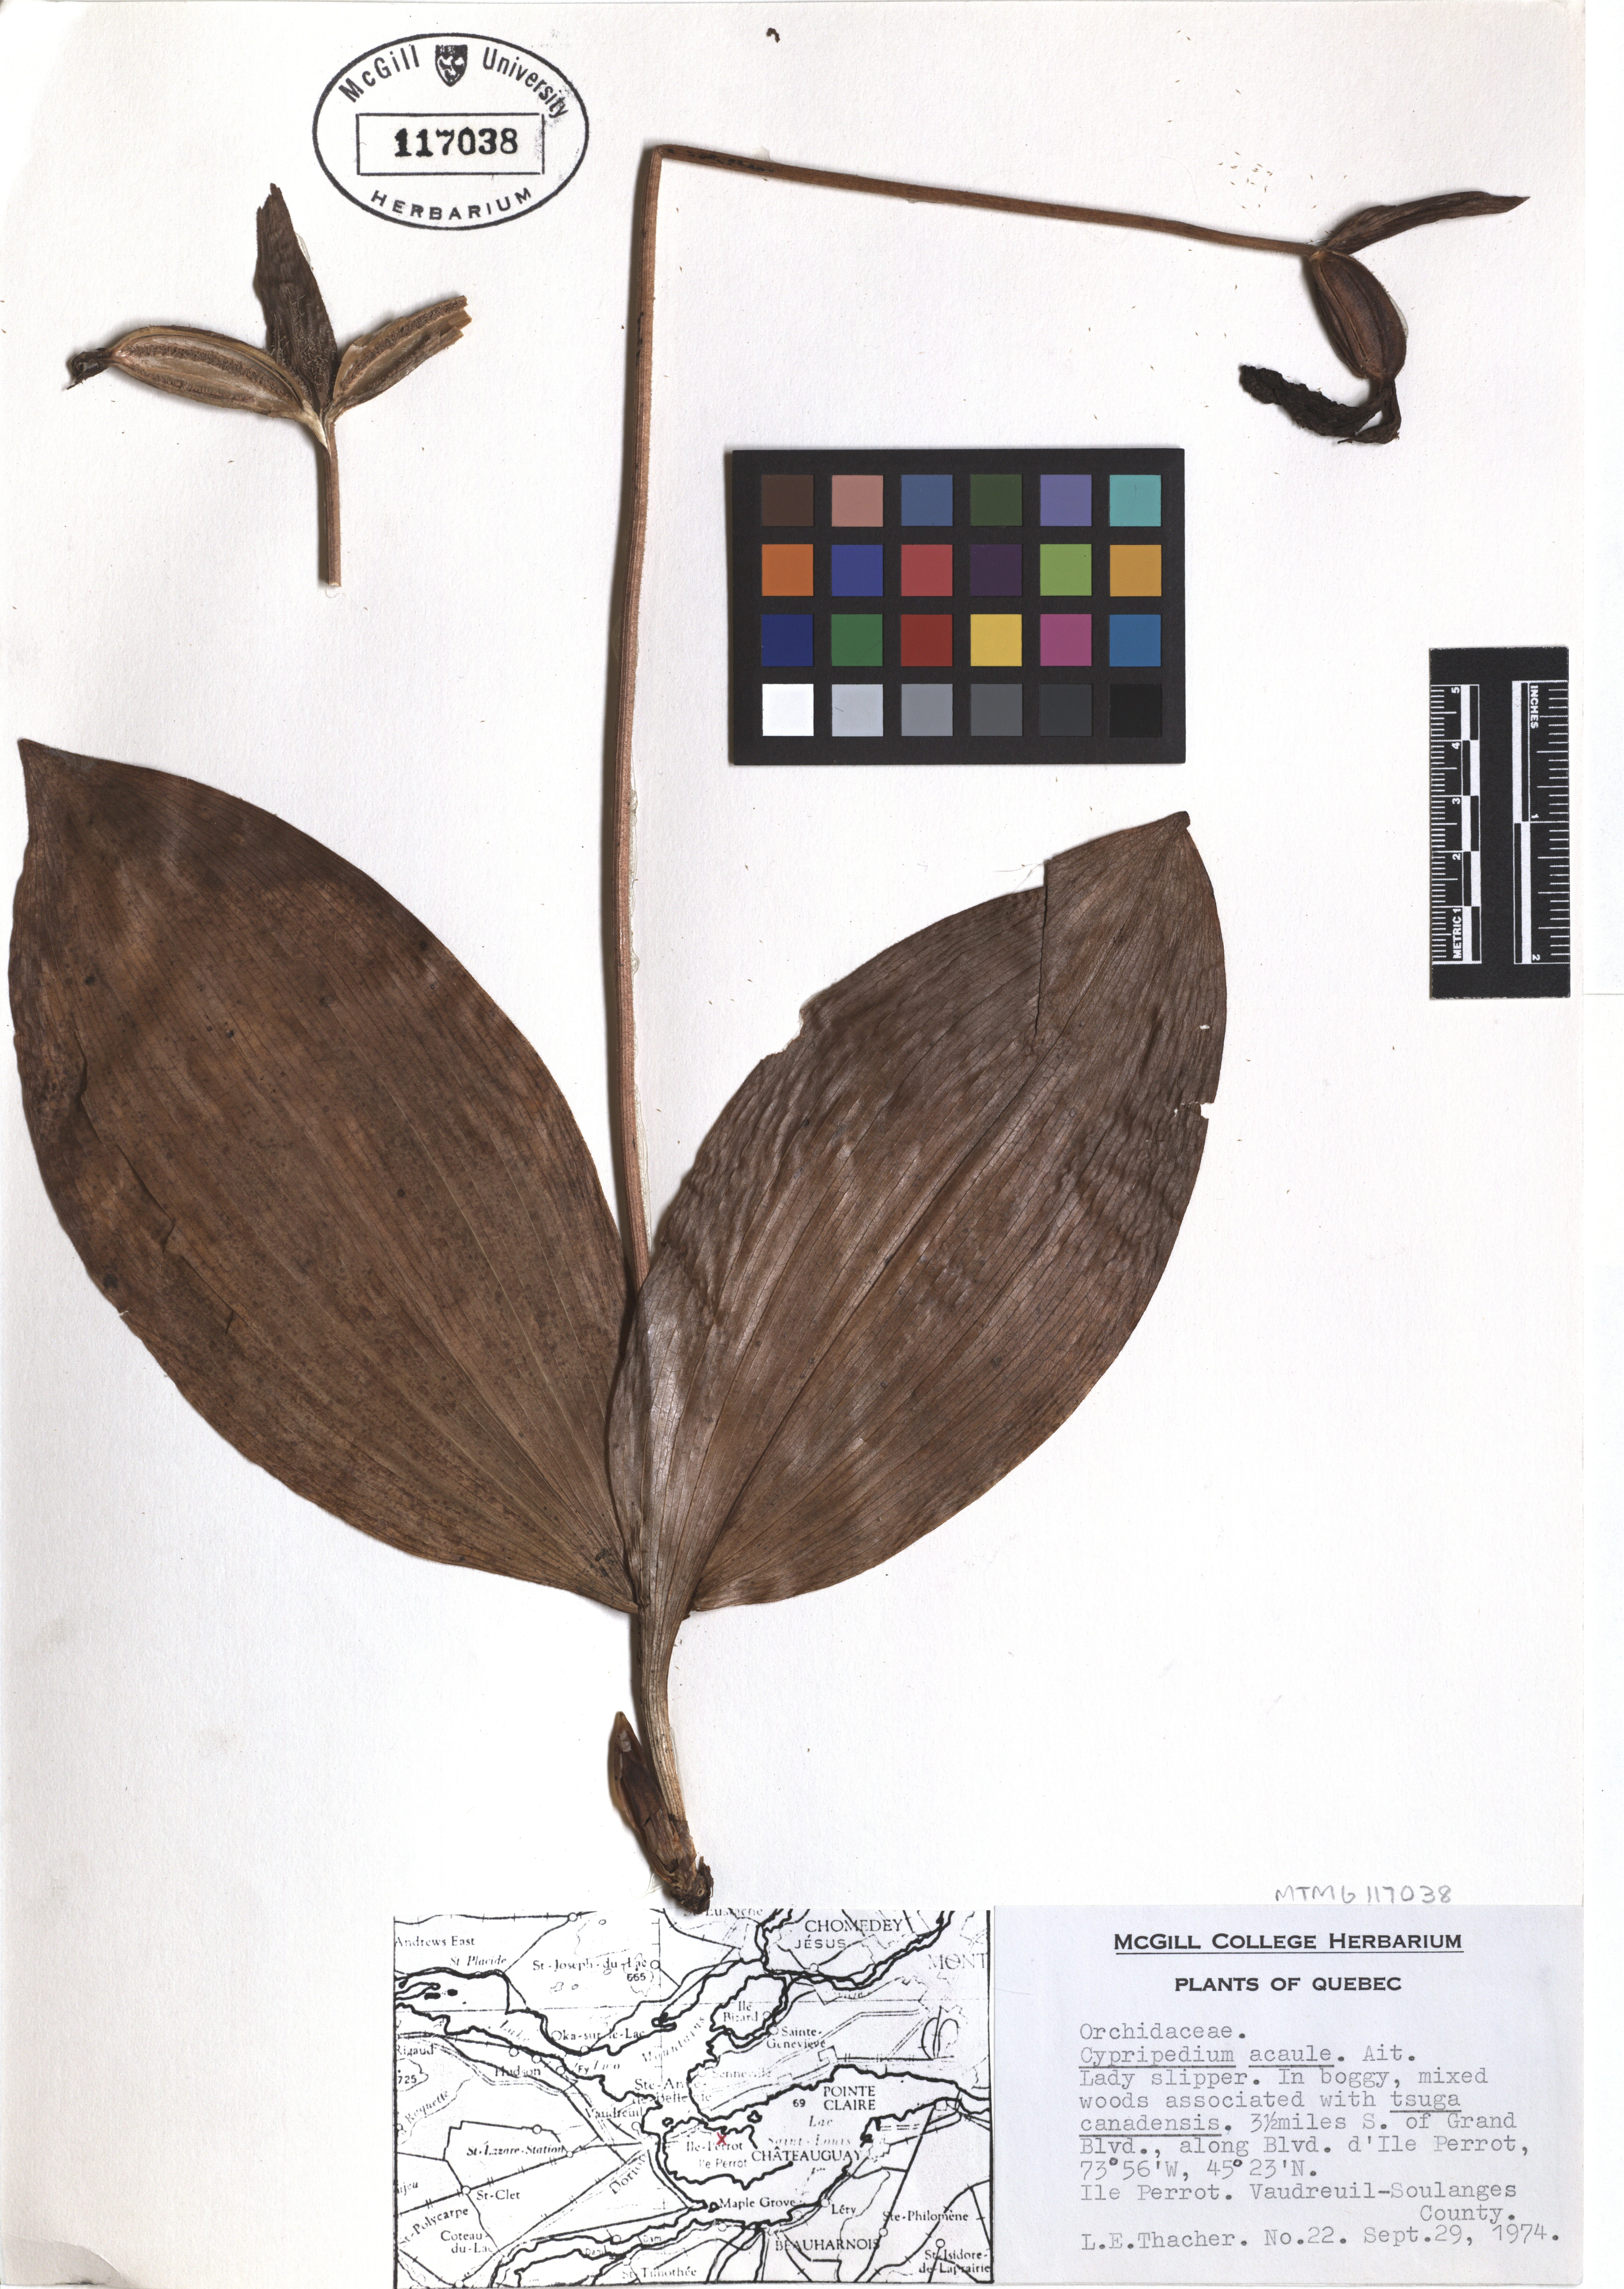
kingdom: Plantae
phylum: Tracheophyta
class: Liliopsida
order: Asparagales
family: Orchidaceae
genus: Cypripedium
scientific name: Cypripedium acaule
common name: Pink lady's-slipper
